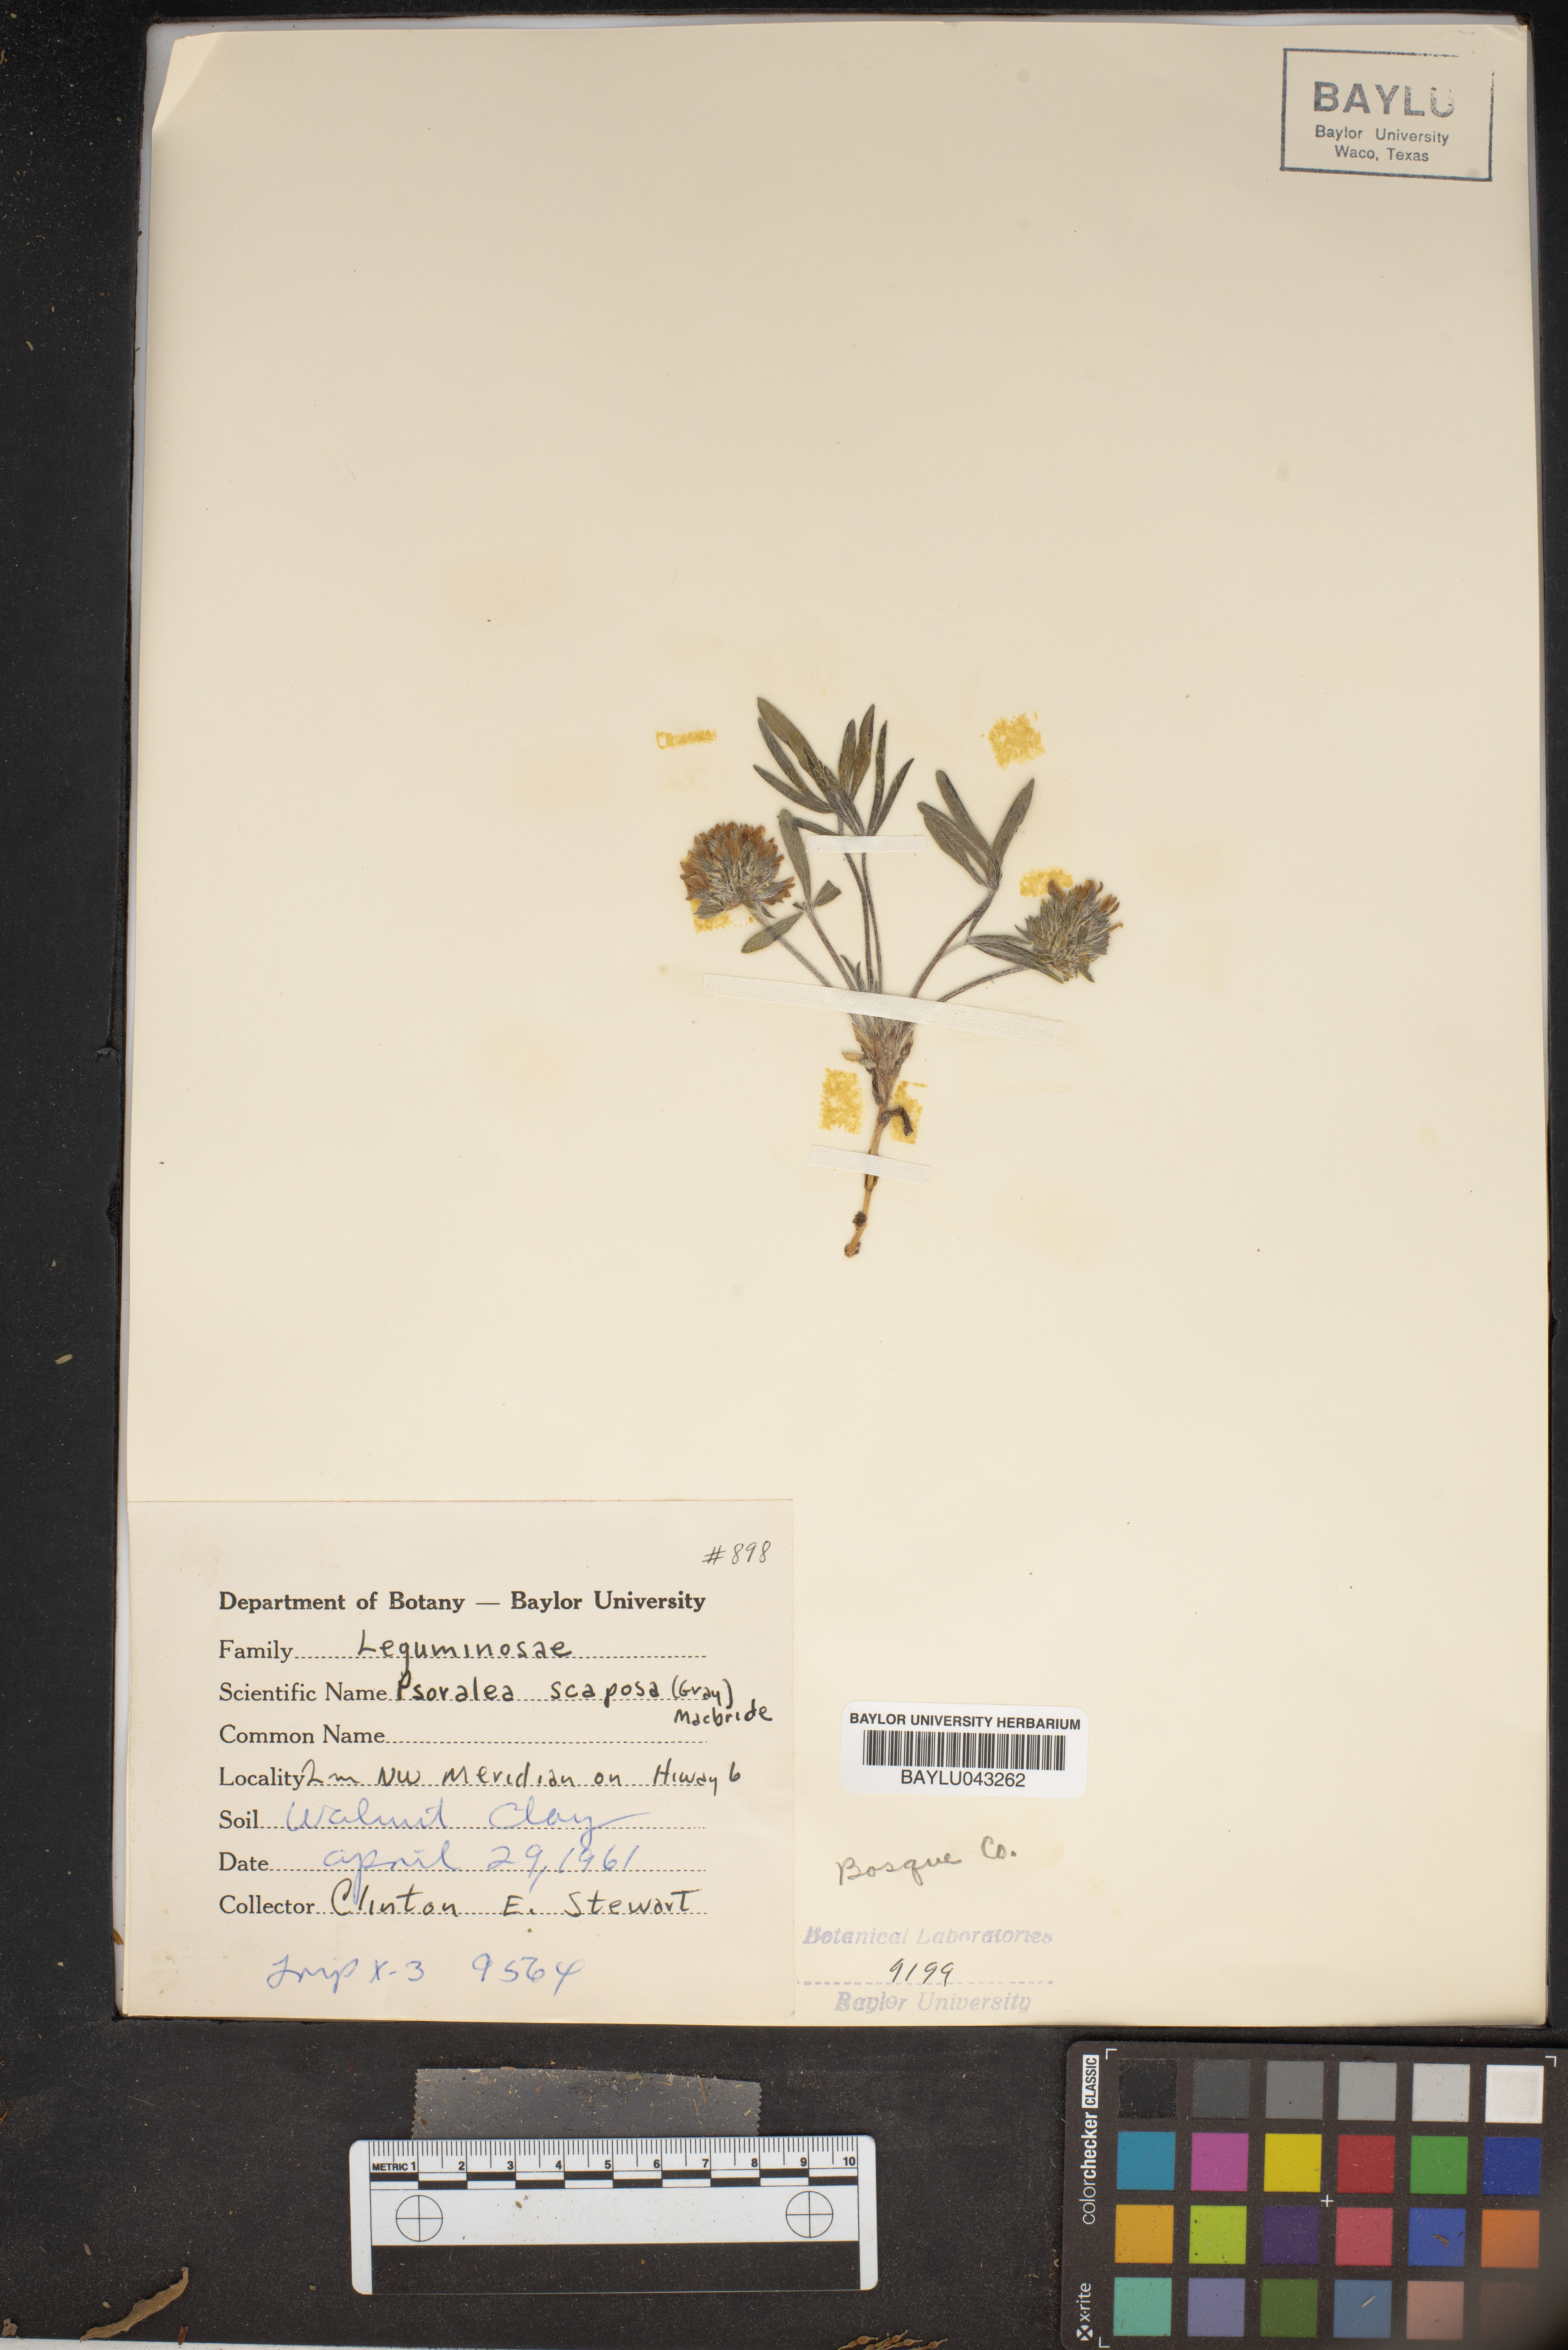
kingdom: Plantae
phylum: Tracheophyta
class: Magnoliopsida
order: Fabales
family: Fabaceae
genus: Pediomelum
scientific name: Pediomelum hypogaeum
